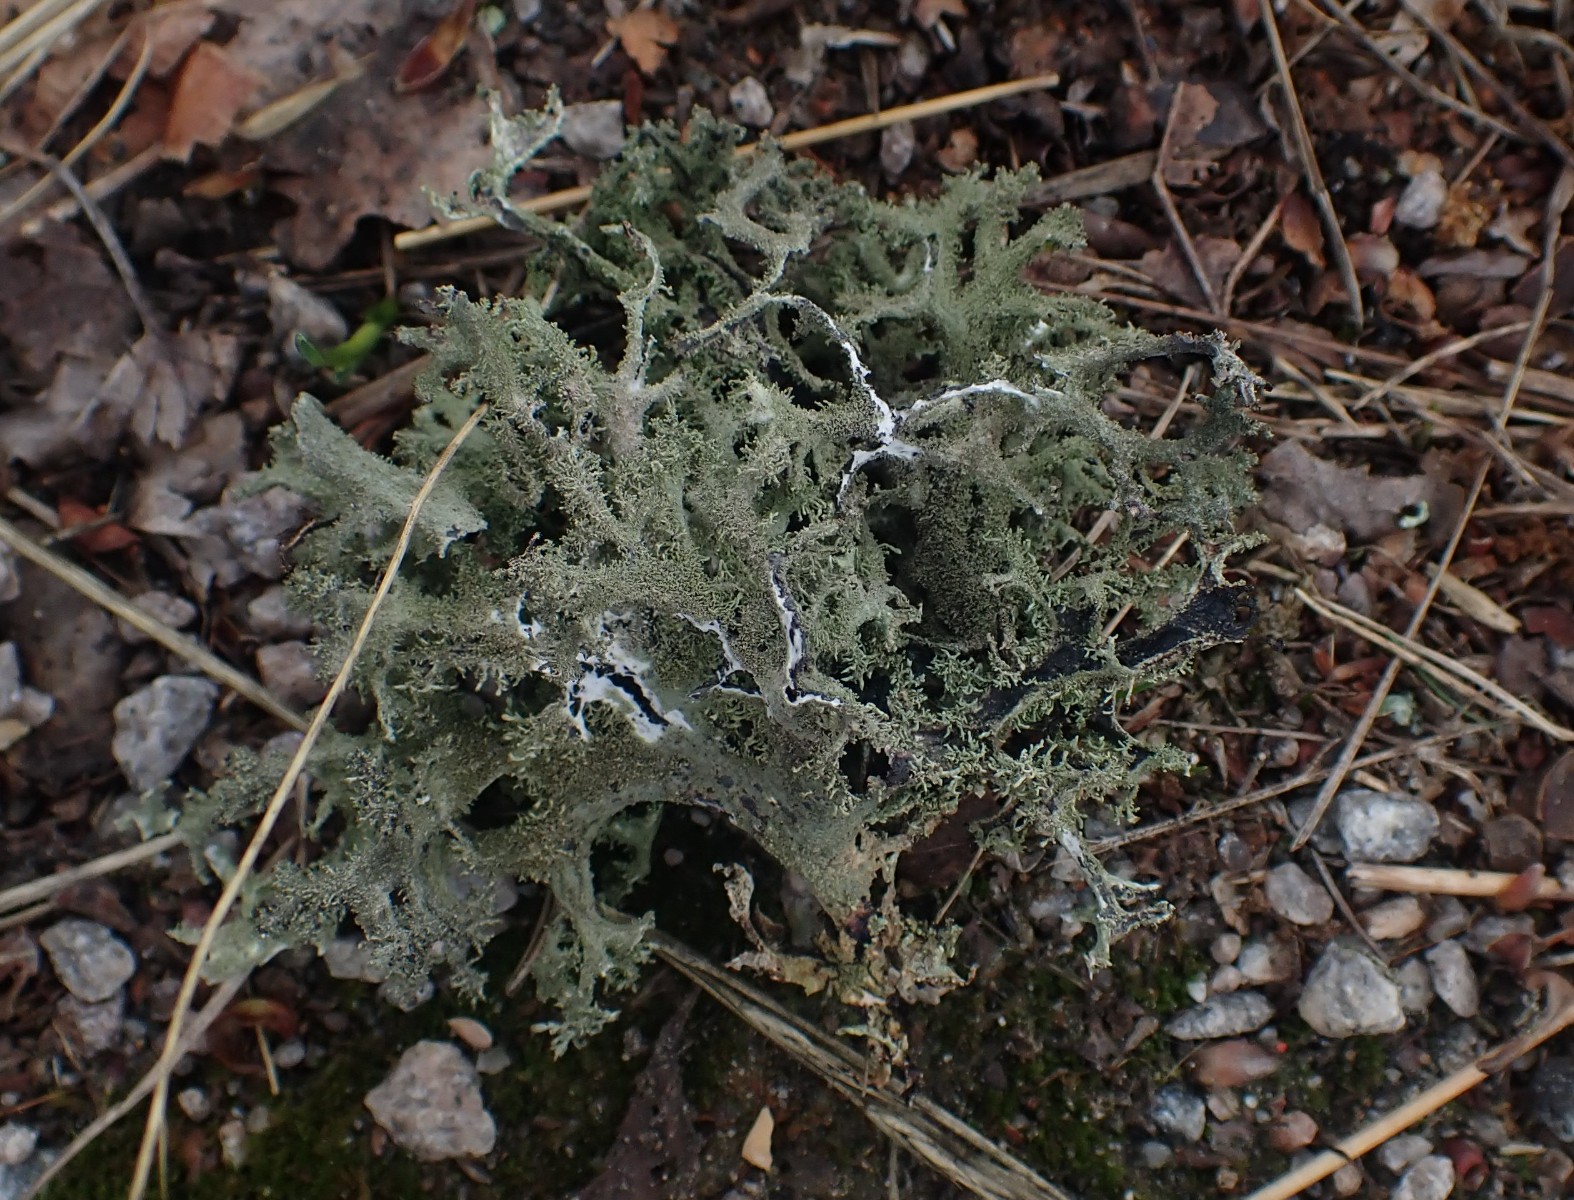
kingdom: Fungi
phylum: Ascomycota
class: Lecanoromycetes
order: Lecanorales
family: Parmeliaceae
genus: Pseudevernia
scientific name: Pseudevernia furfuracea
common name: grå fyrrelav
